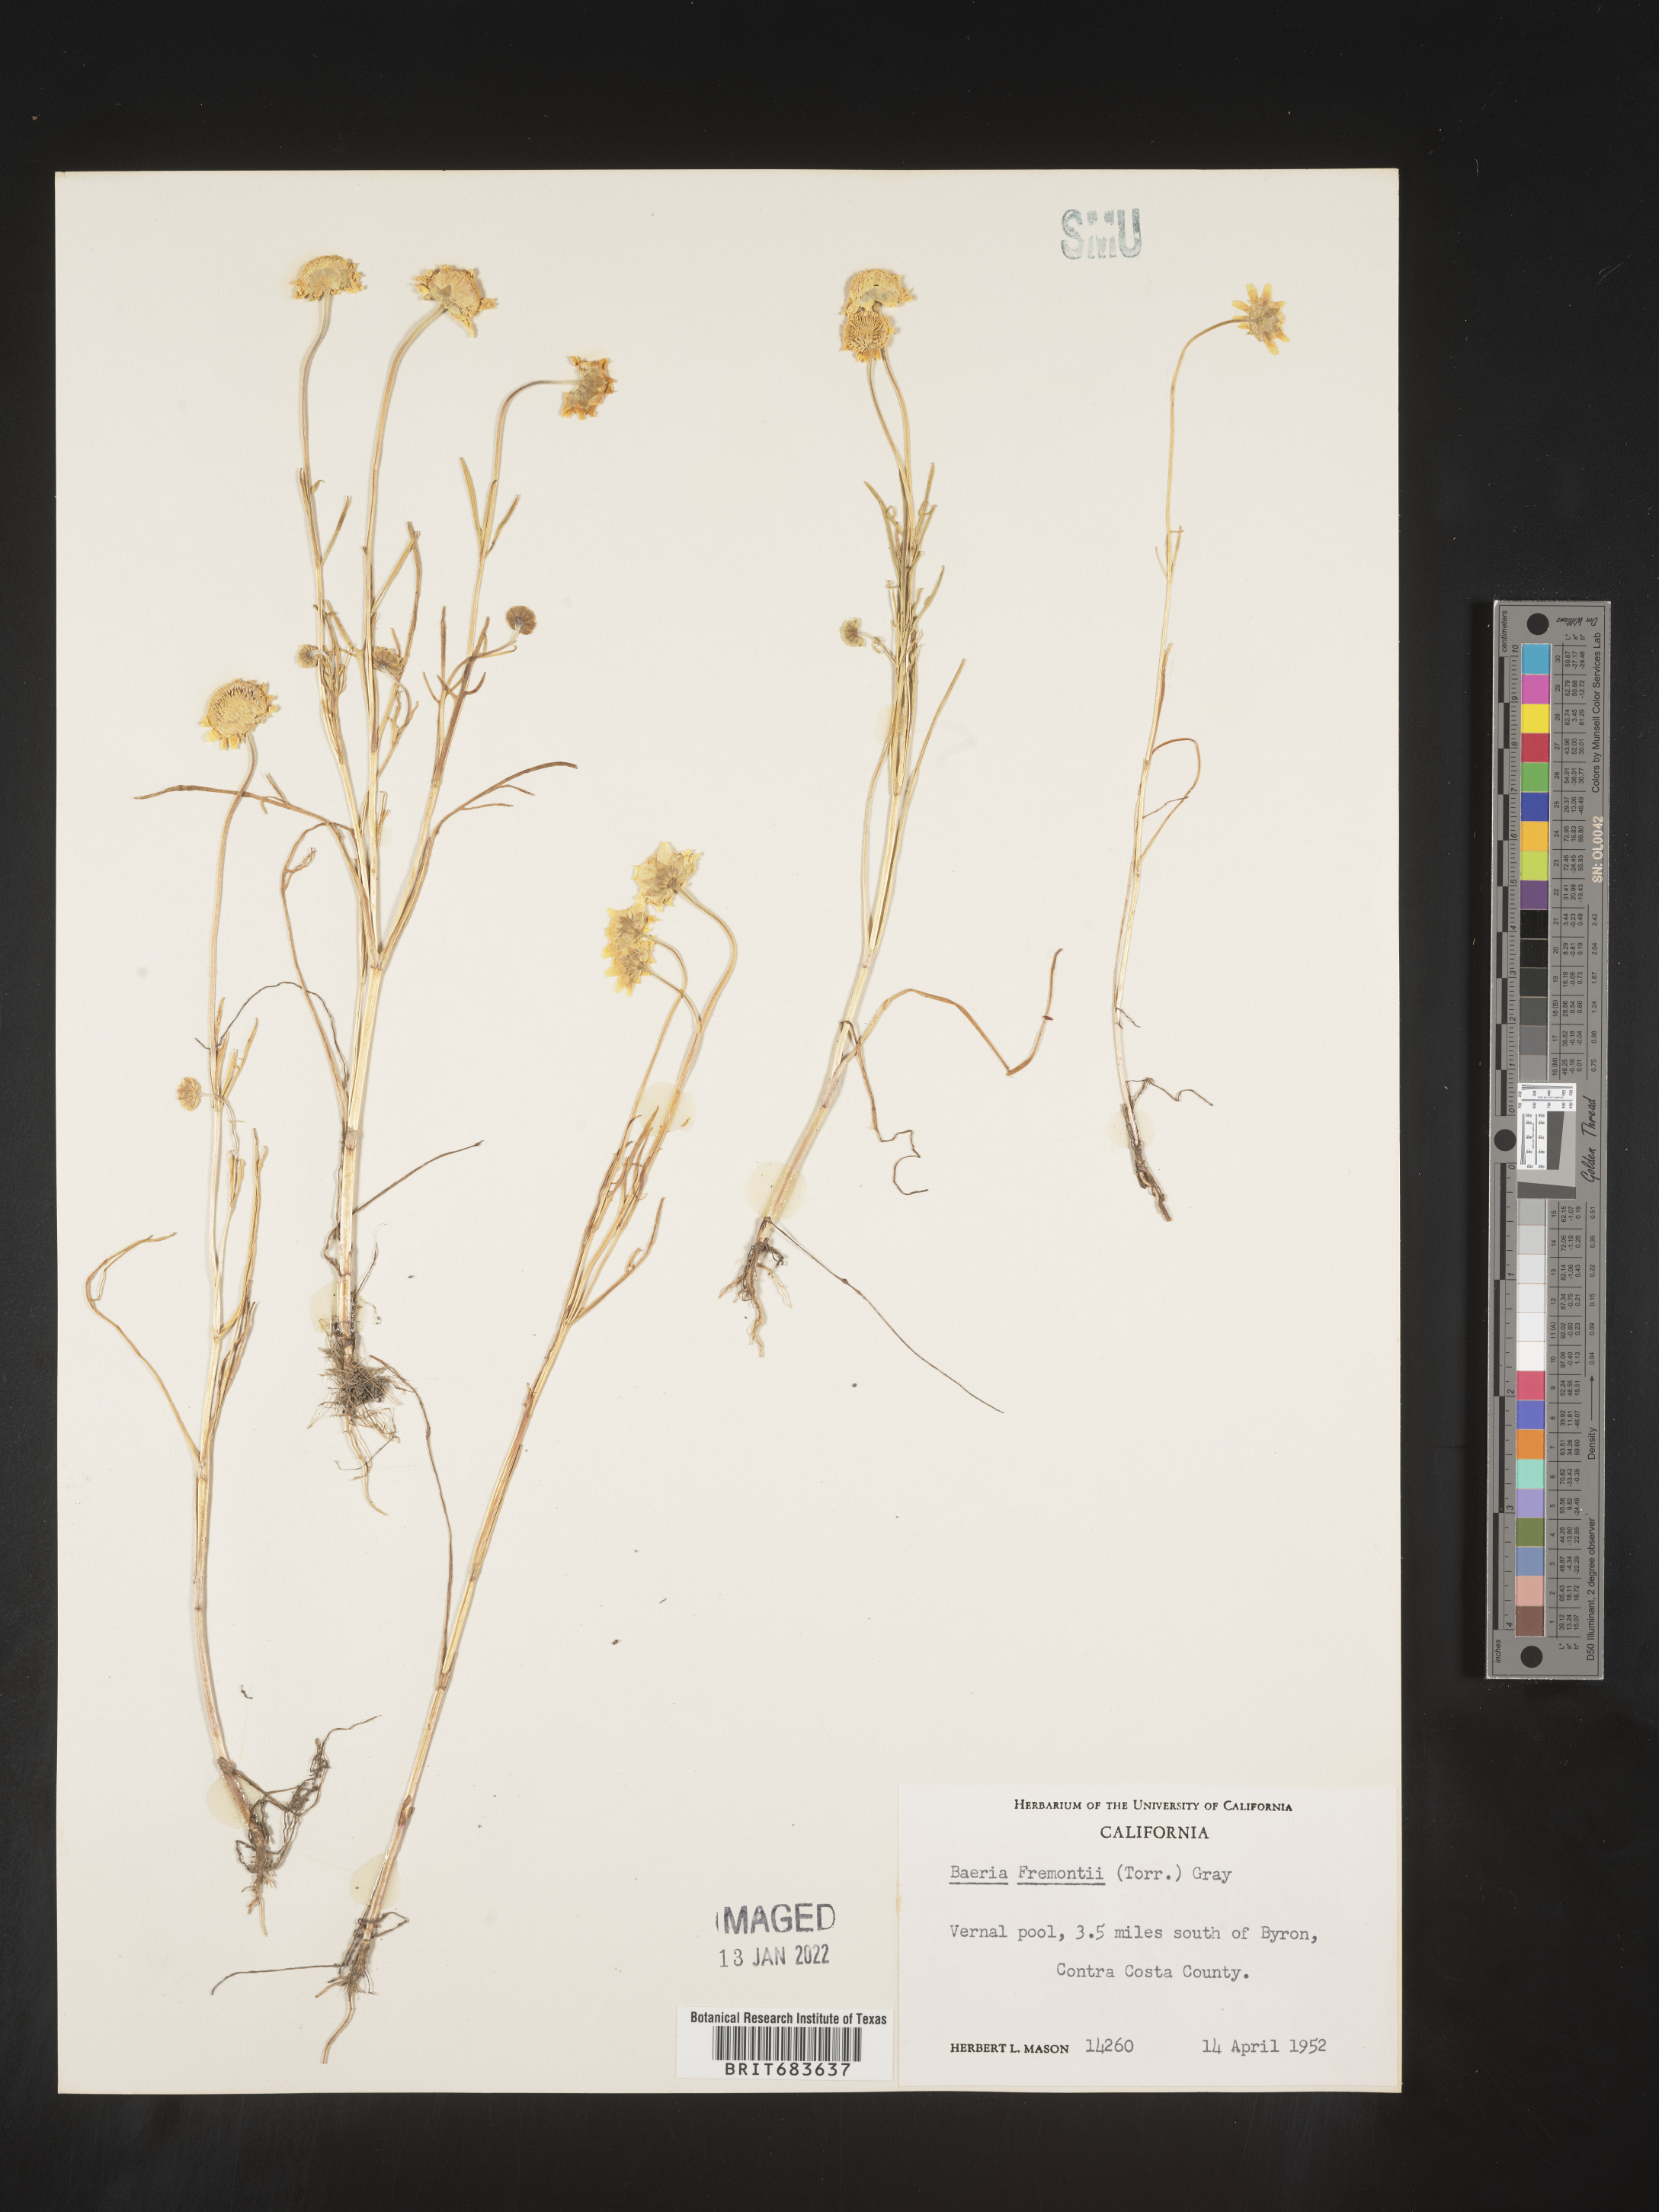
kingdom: Plantae
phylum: Tracheophyta
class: Magnoliopsida
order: Asterales
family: Asteraceae
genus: Lasthenia
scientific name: Lasthenia
